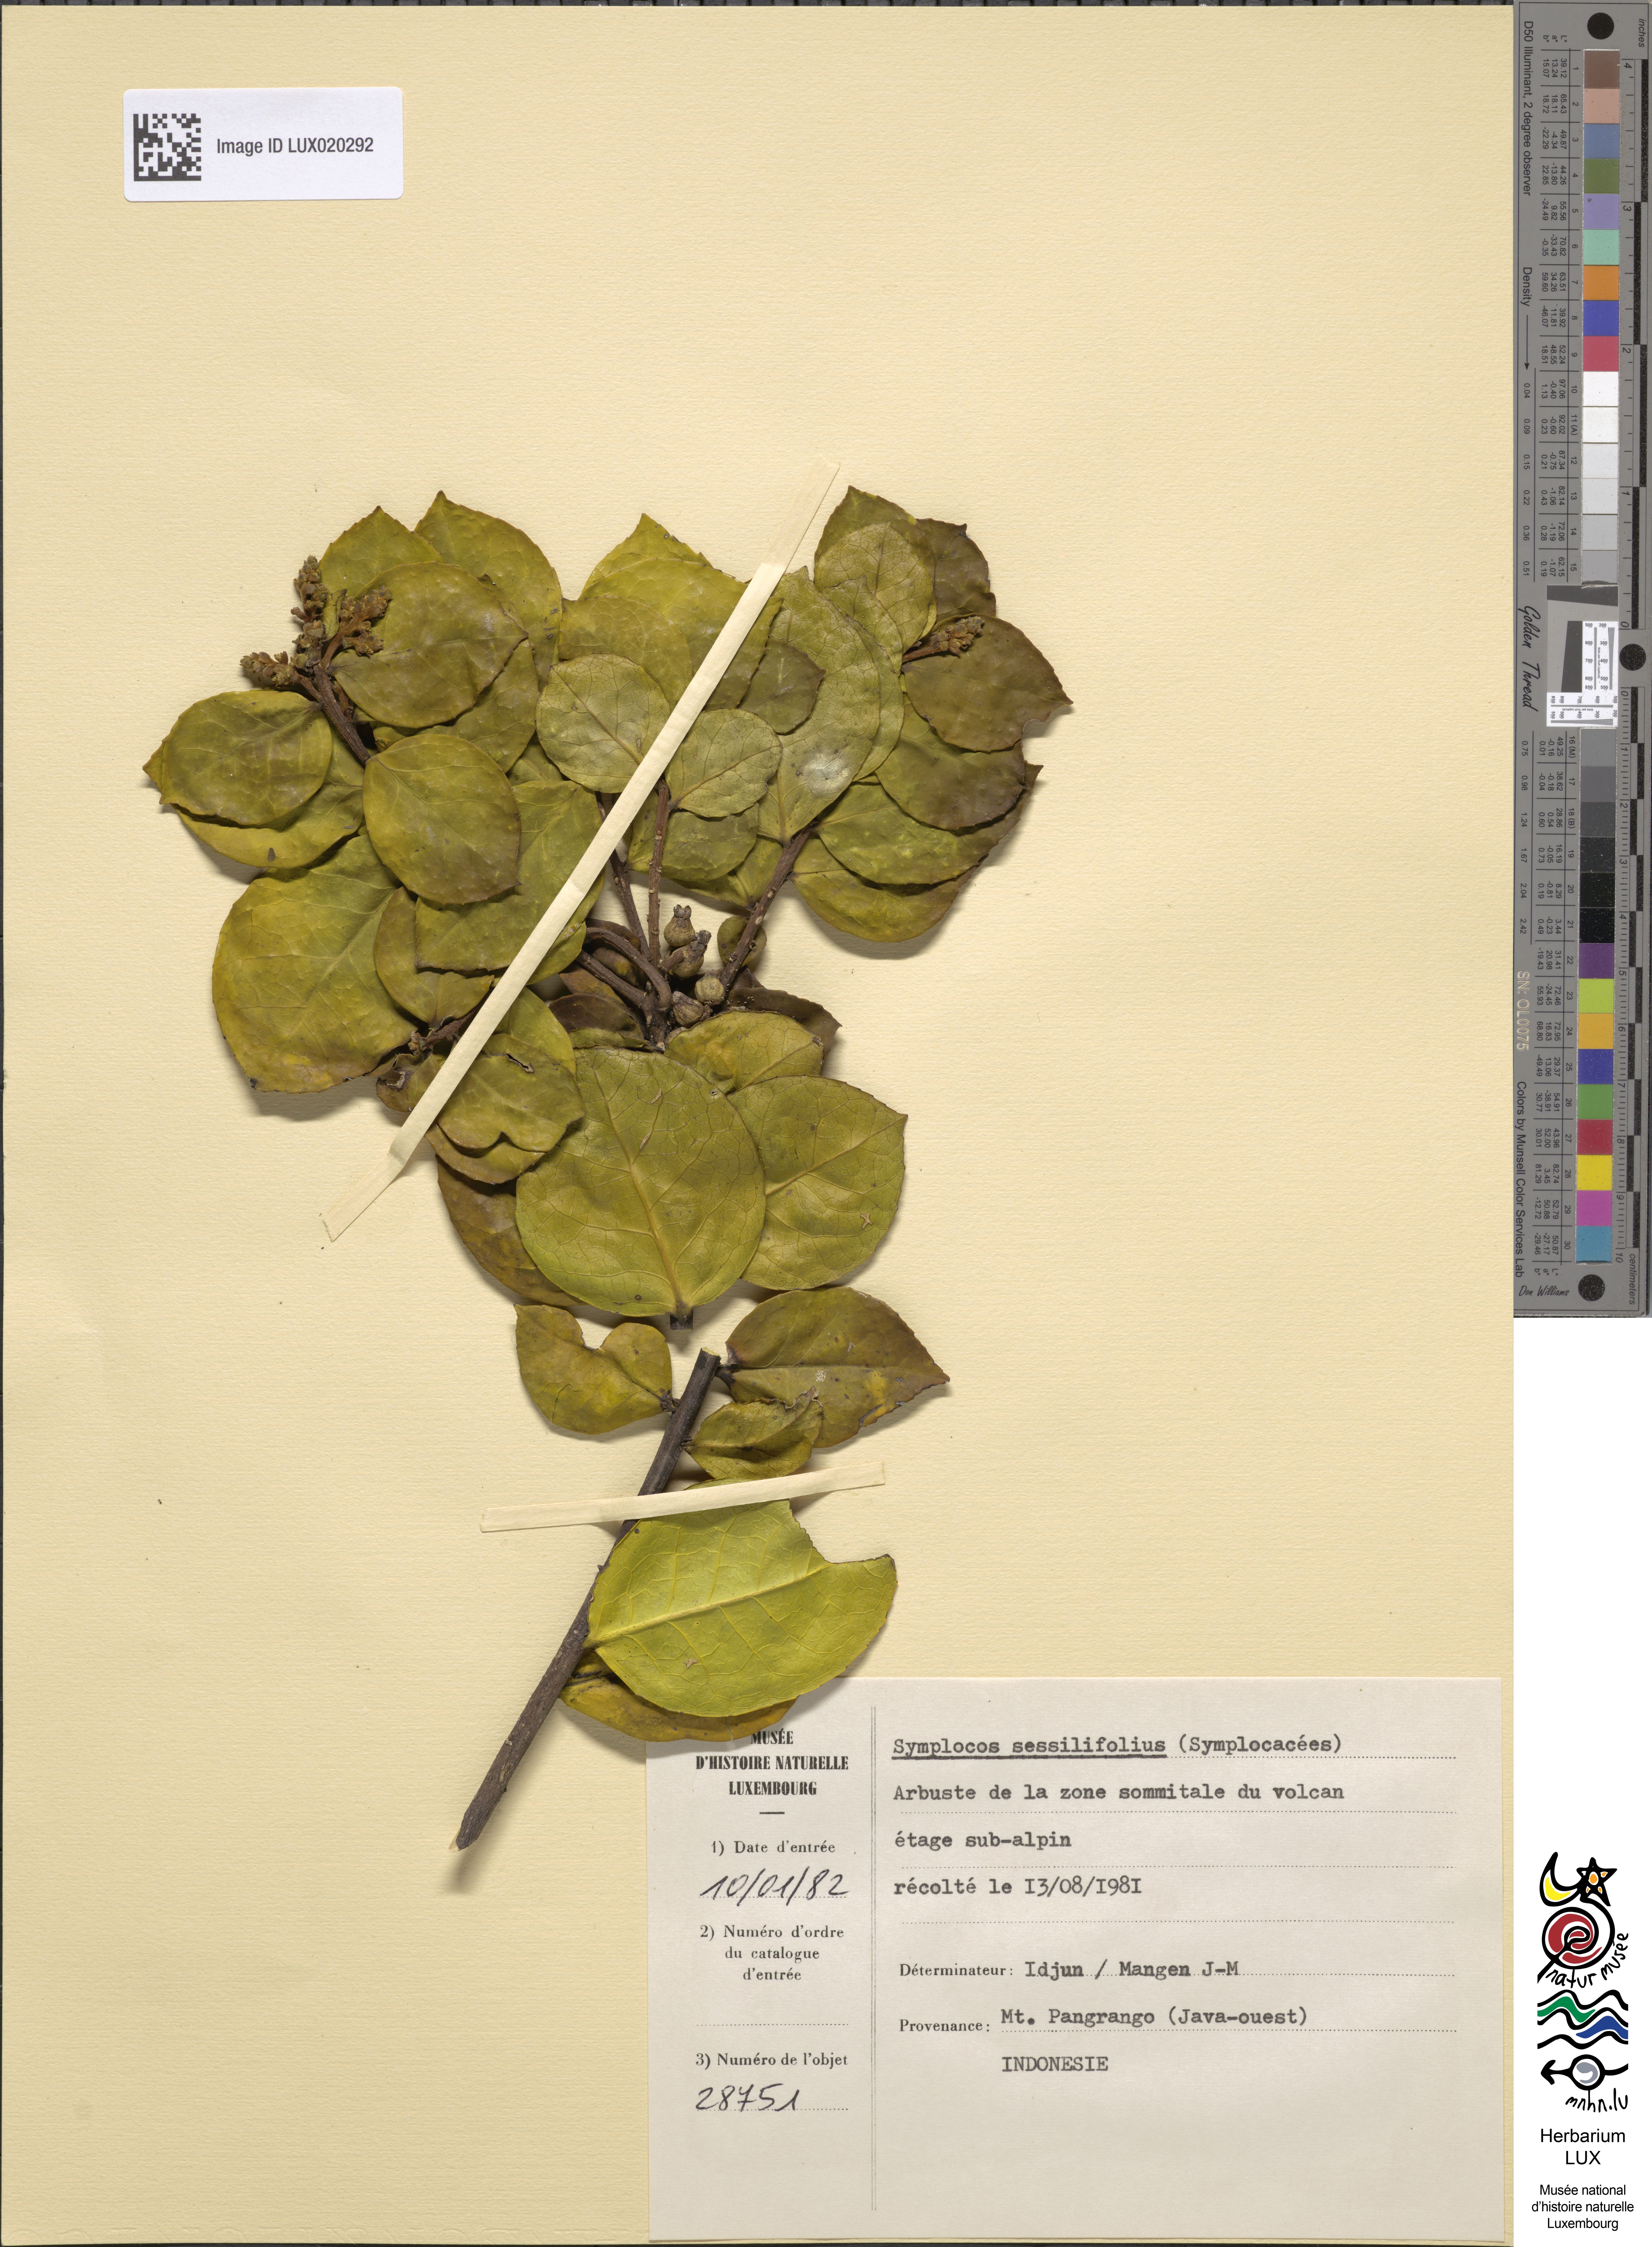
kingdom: Plantae
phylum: Tracheophyta
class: Magnoliopsida
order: Ericales
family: Symplocaceae
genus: Symplocos
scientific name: Symplocos cochinchinensis
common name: Buff hazelwood
